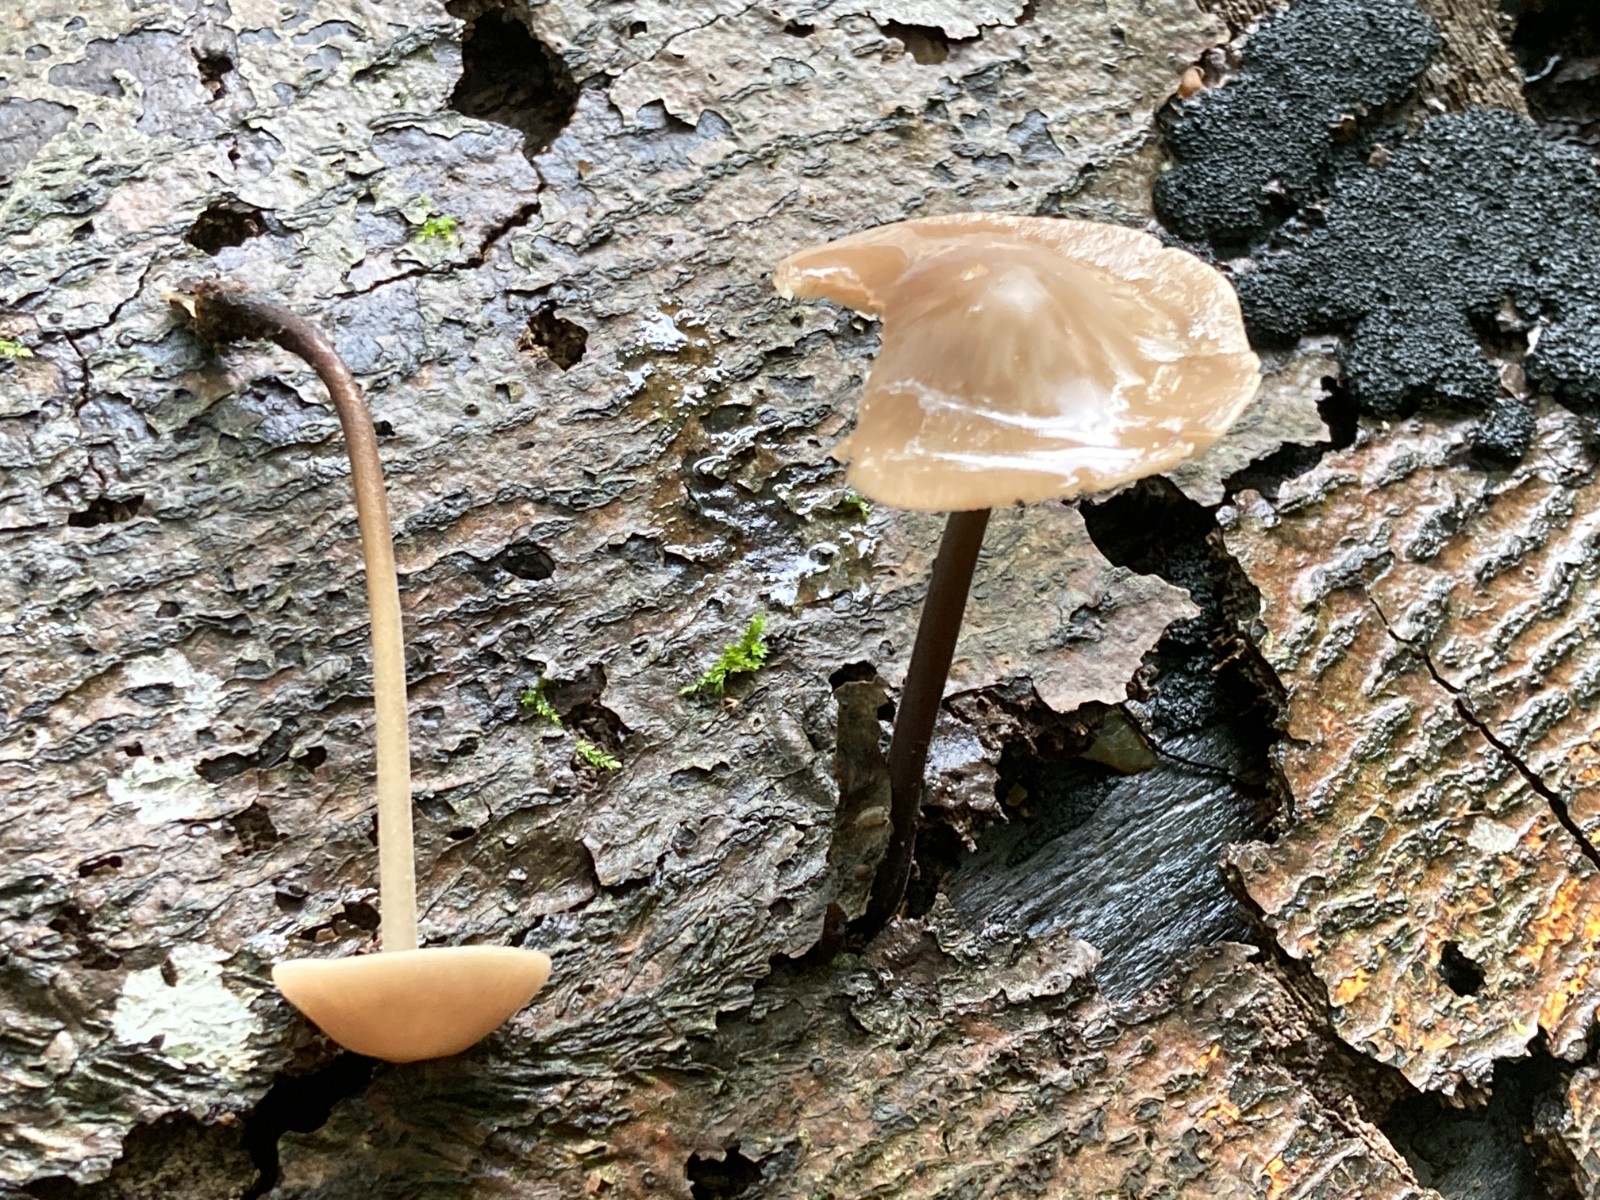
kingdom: Fungi
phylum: Basidiomycota
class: Agaricomycetes
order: Agaricales
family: Omphalotaceae
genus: Mycetinis
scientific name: Mycetinis alliaceus
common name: stor løghat
